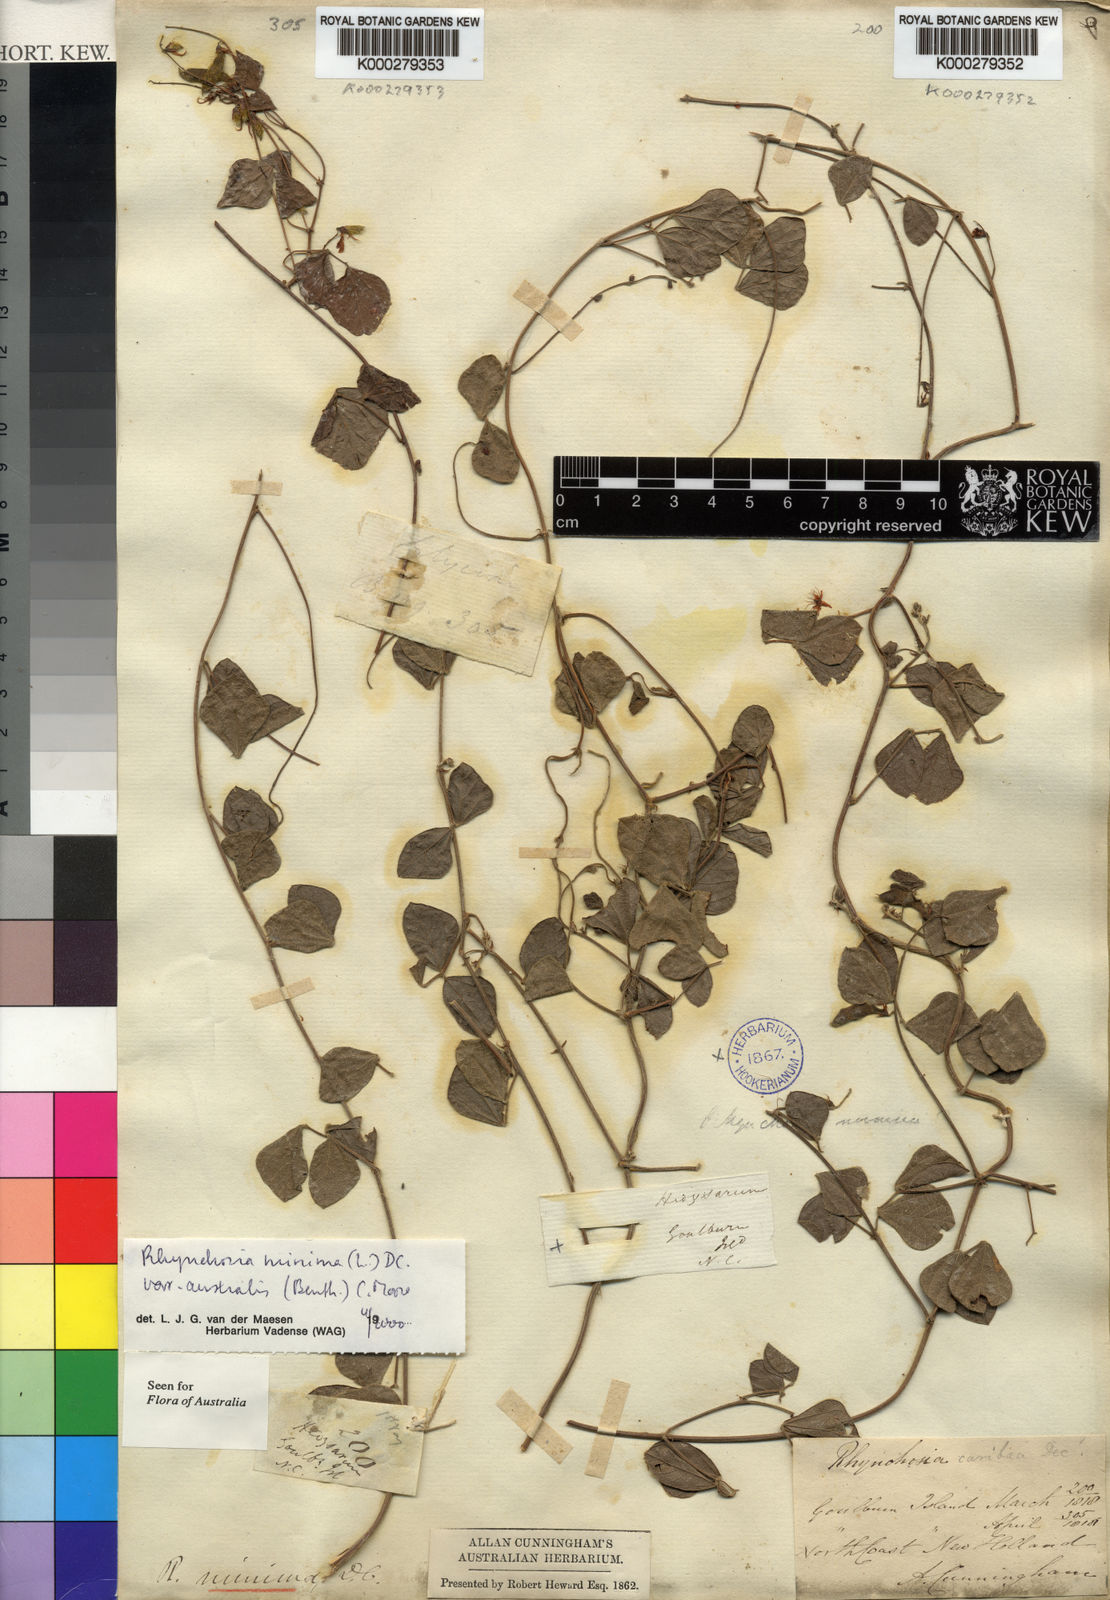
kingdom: Plantae
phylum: Tracheophyta
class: Magnoliopsida
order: Fabales
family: Fabaceae
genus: Rhynchosia
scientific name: Rhynchosia australis
